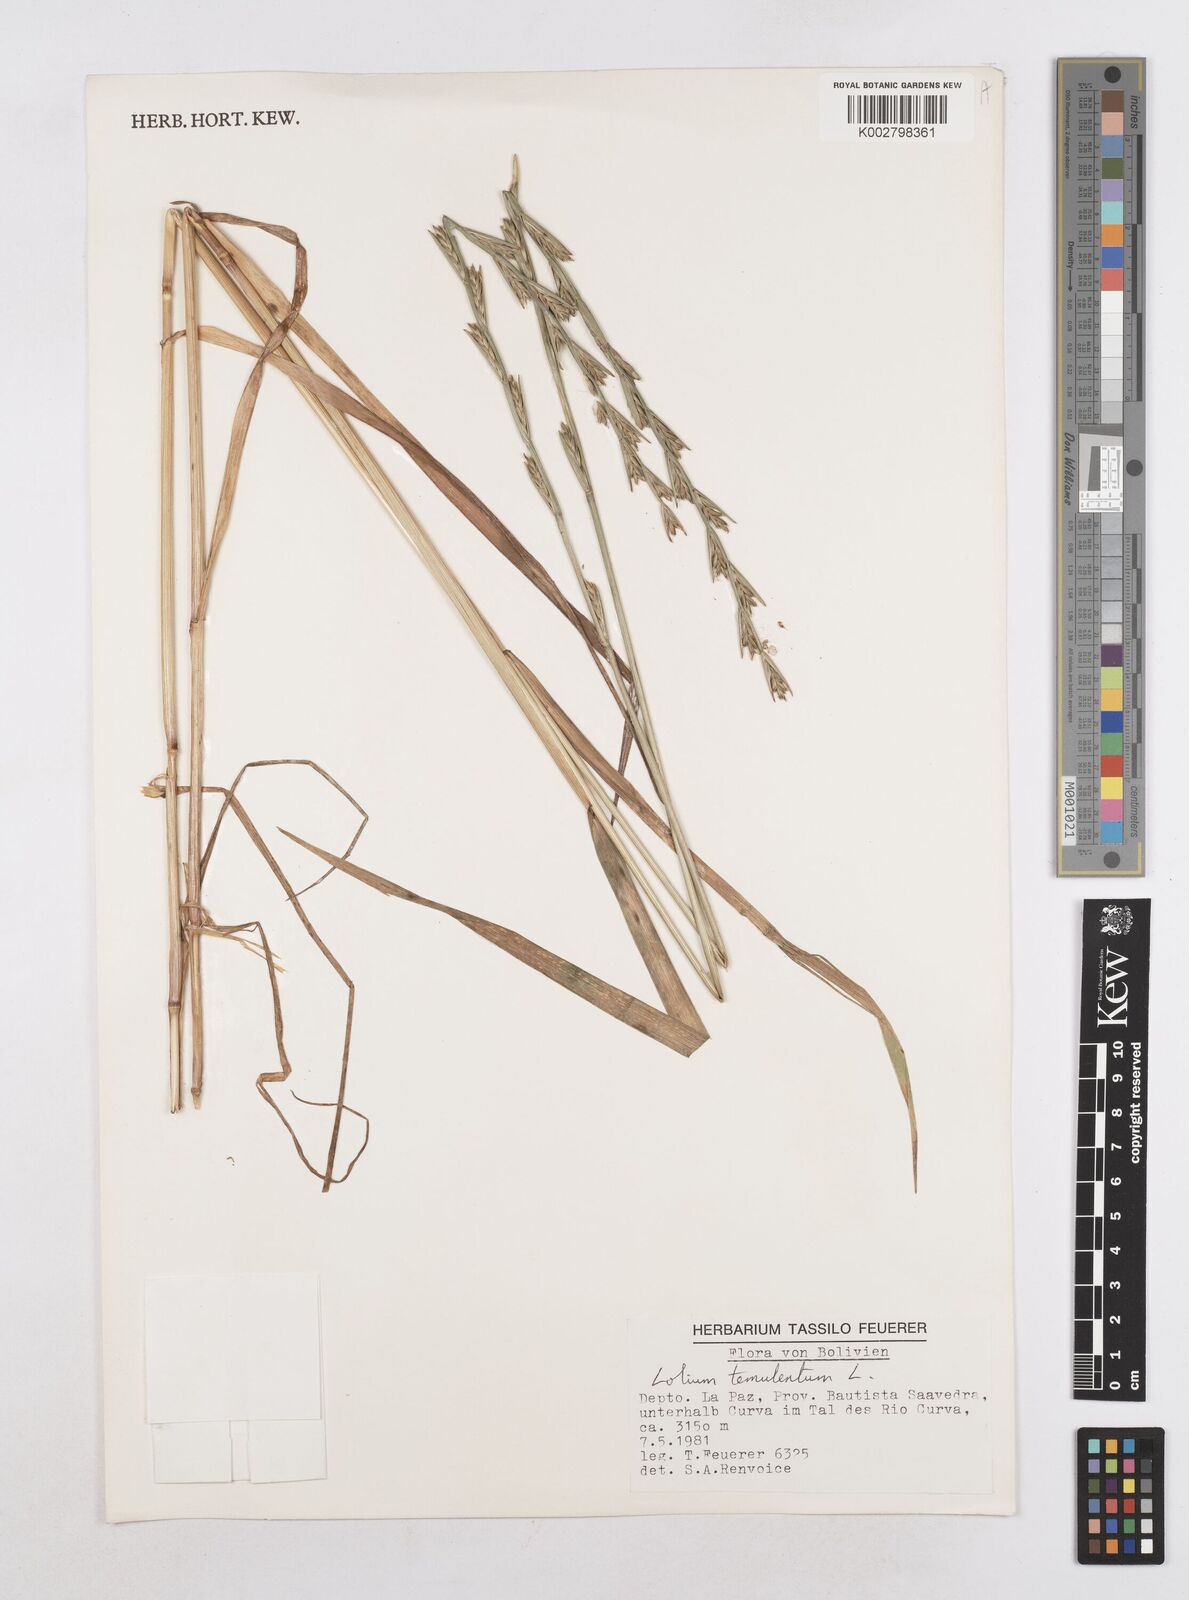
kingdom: Plantae
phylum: Tracheophyta
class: Liliopsida
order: Poales
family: Poaceae
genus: Lolium
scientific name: Lolium temulentum
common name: Darnel
